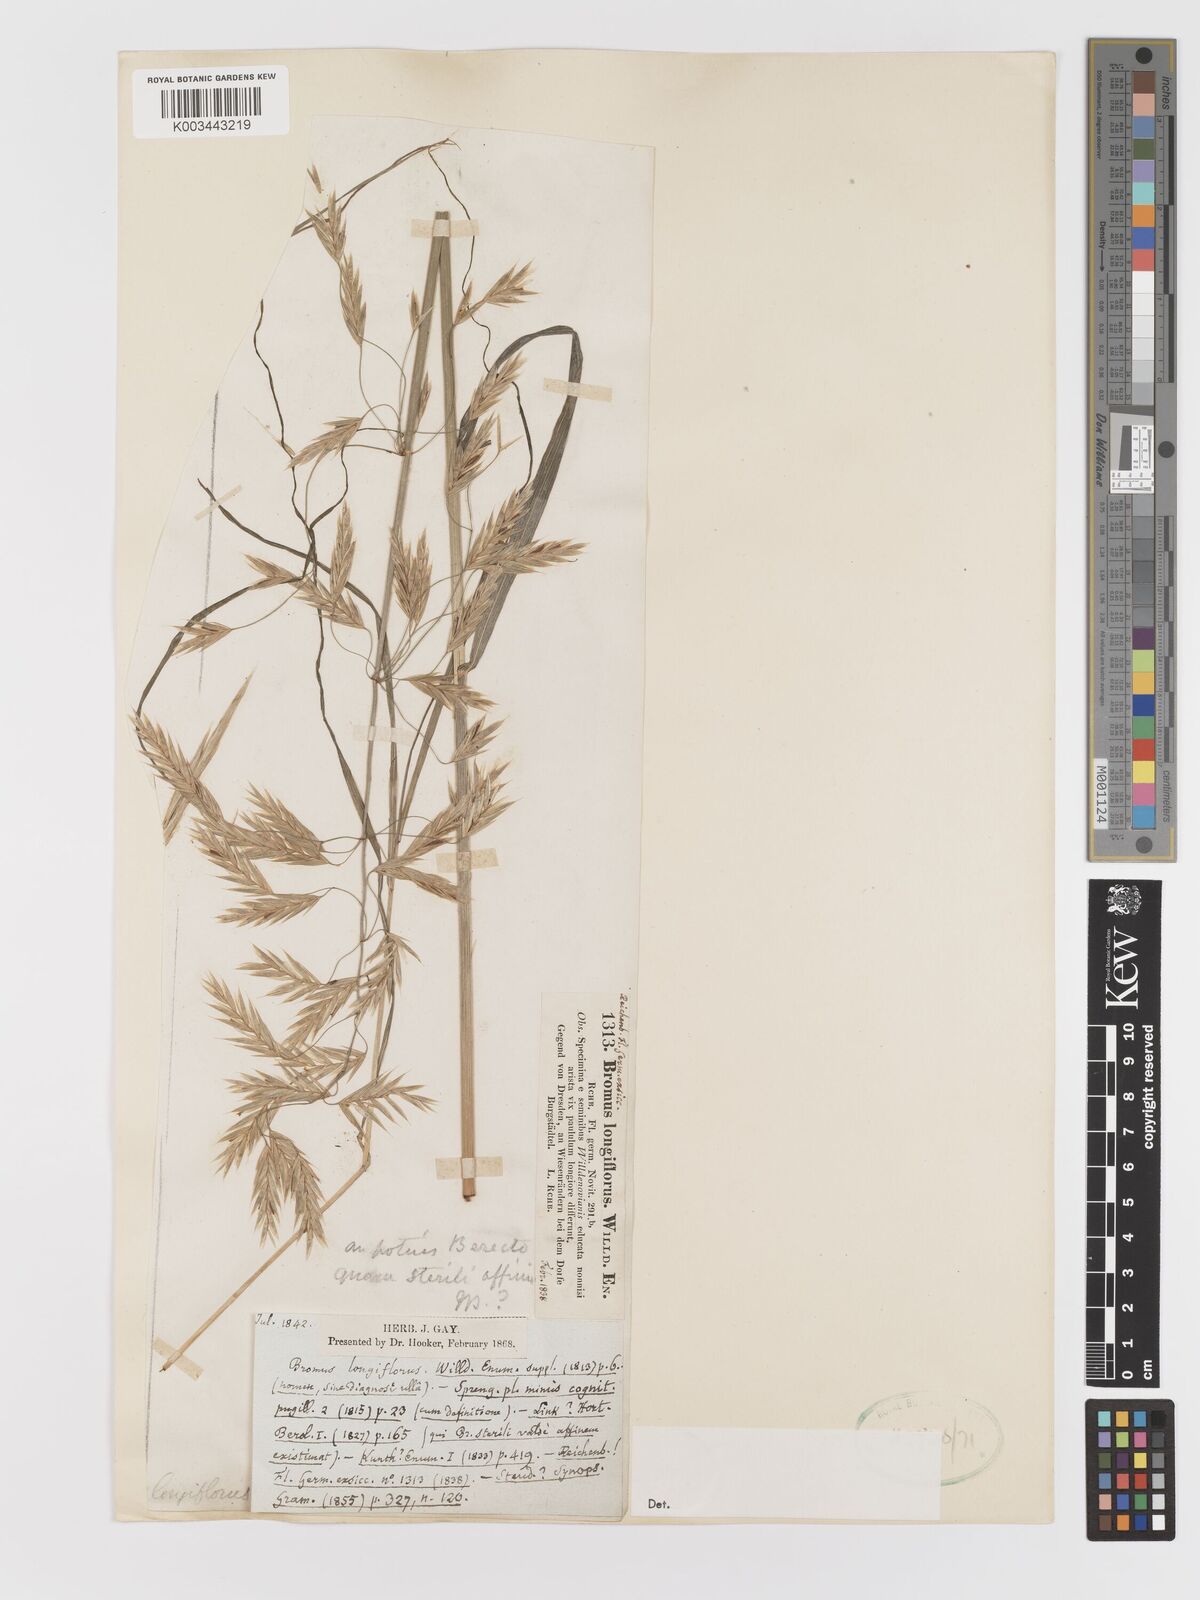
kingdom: Plantae
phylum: Tracheophyta
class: Liliopsida
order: Poales
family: Poaceae
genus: Bromus
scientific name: Bromus
